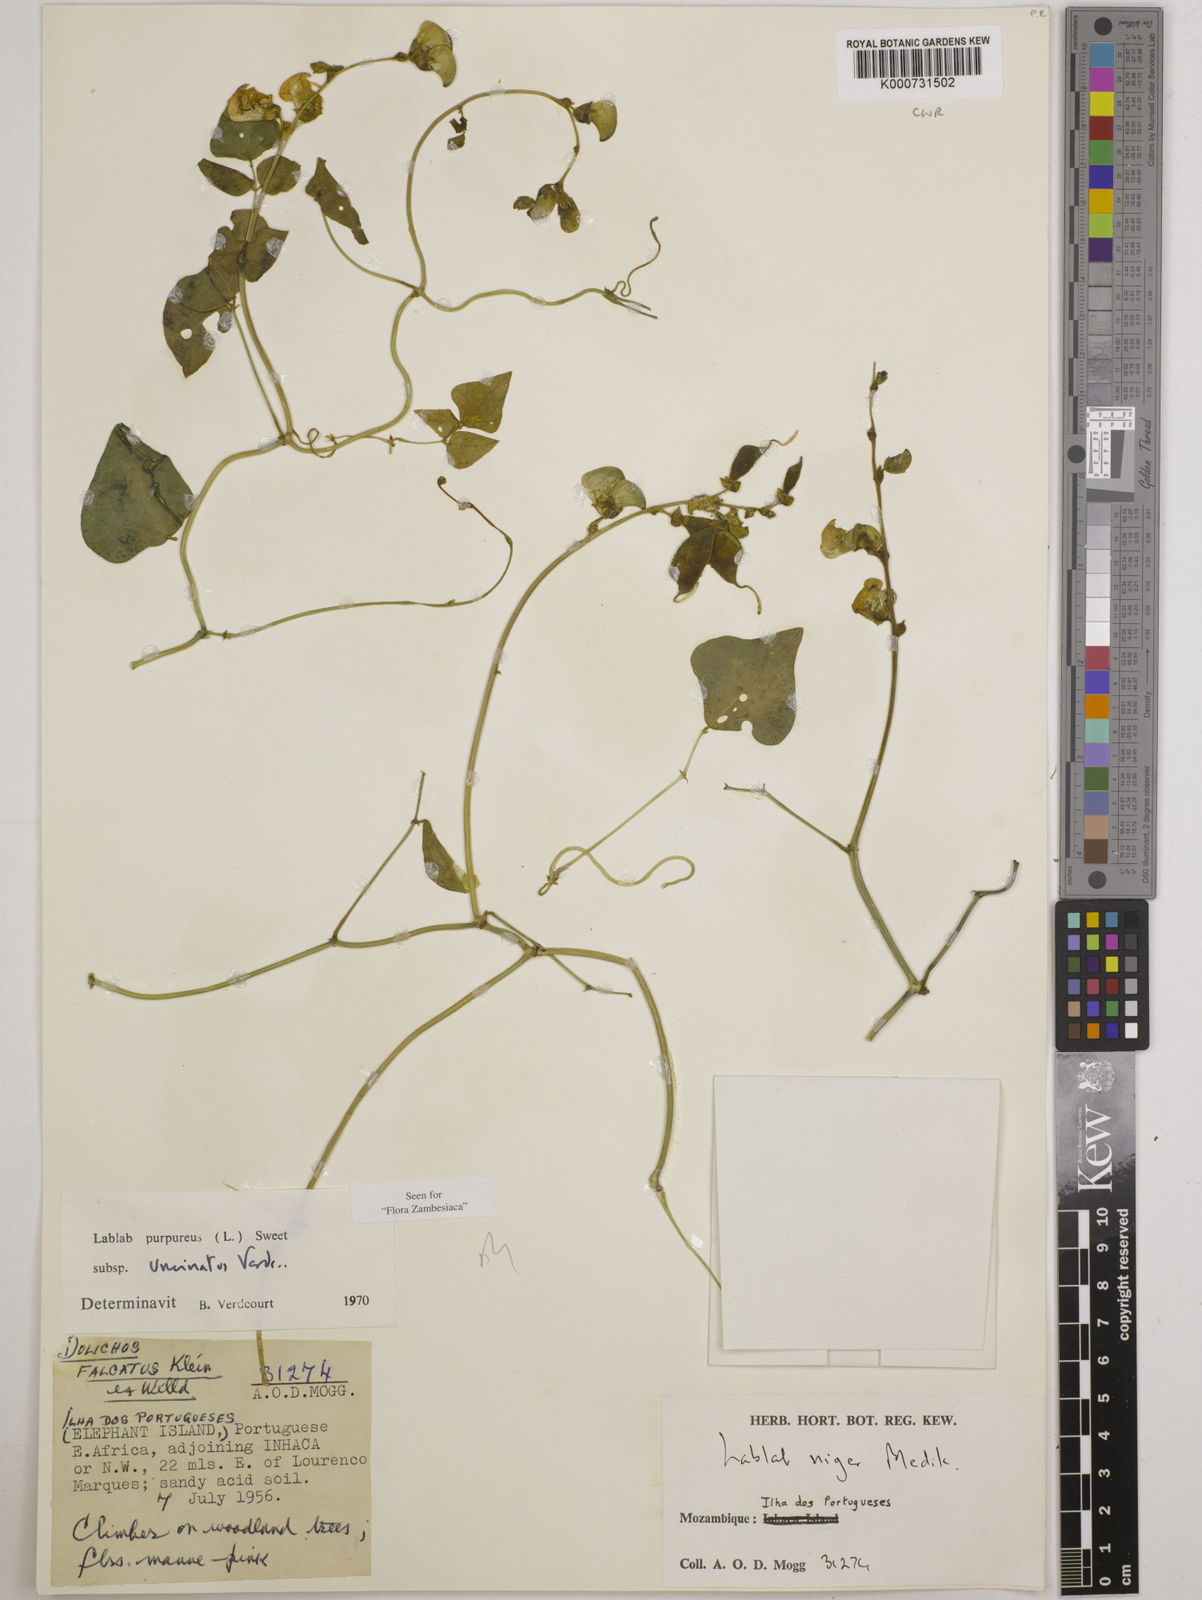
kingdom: Plantae
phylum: Tracheophyta
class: Magnoliopsida
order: Fabales
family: Fabaceae
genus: Lablab
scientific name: Lablab purpureus
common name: Lablab-bean
